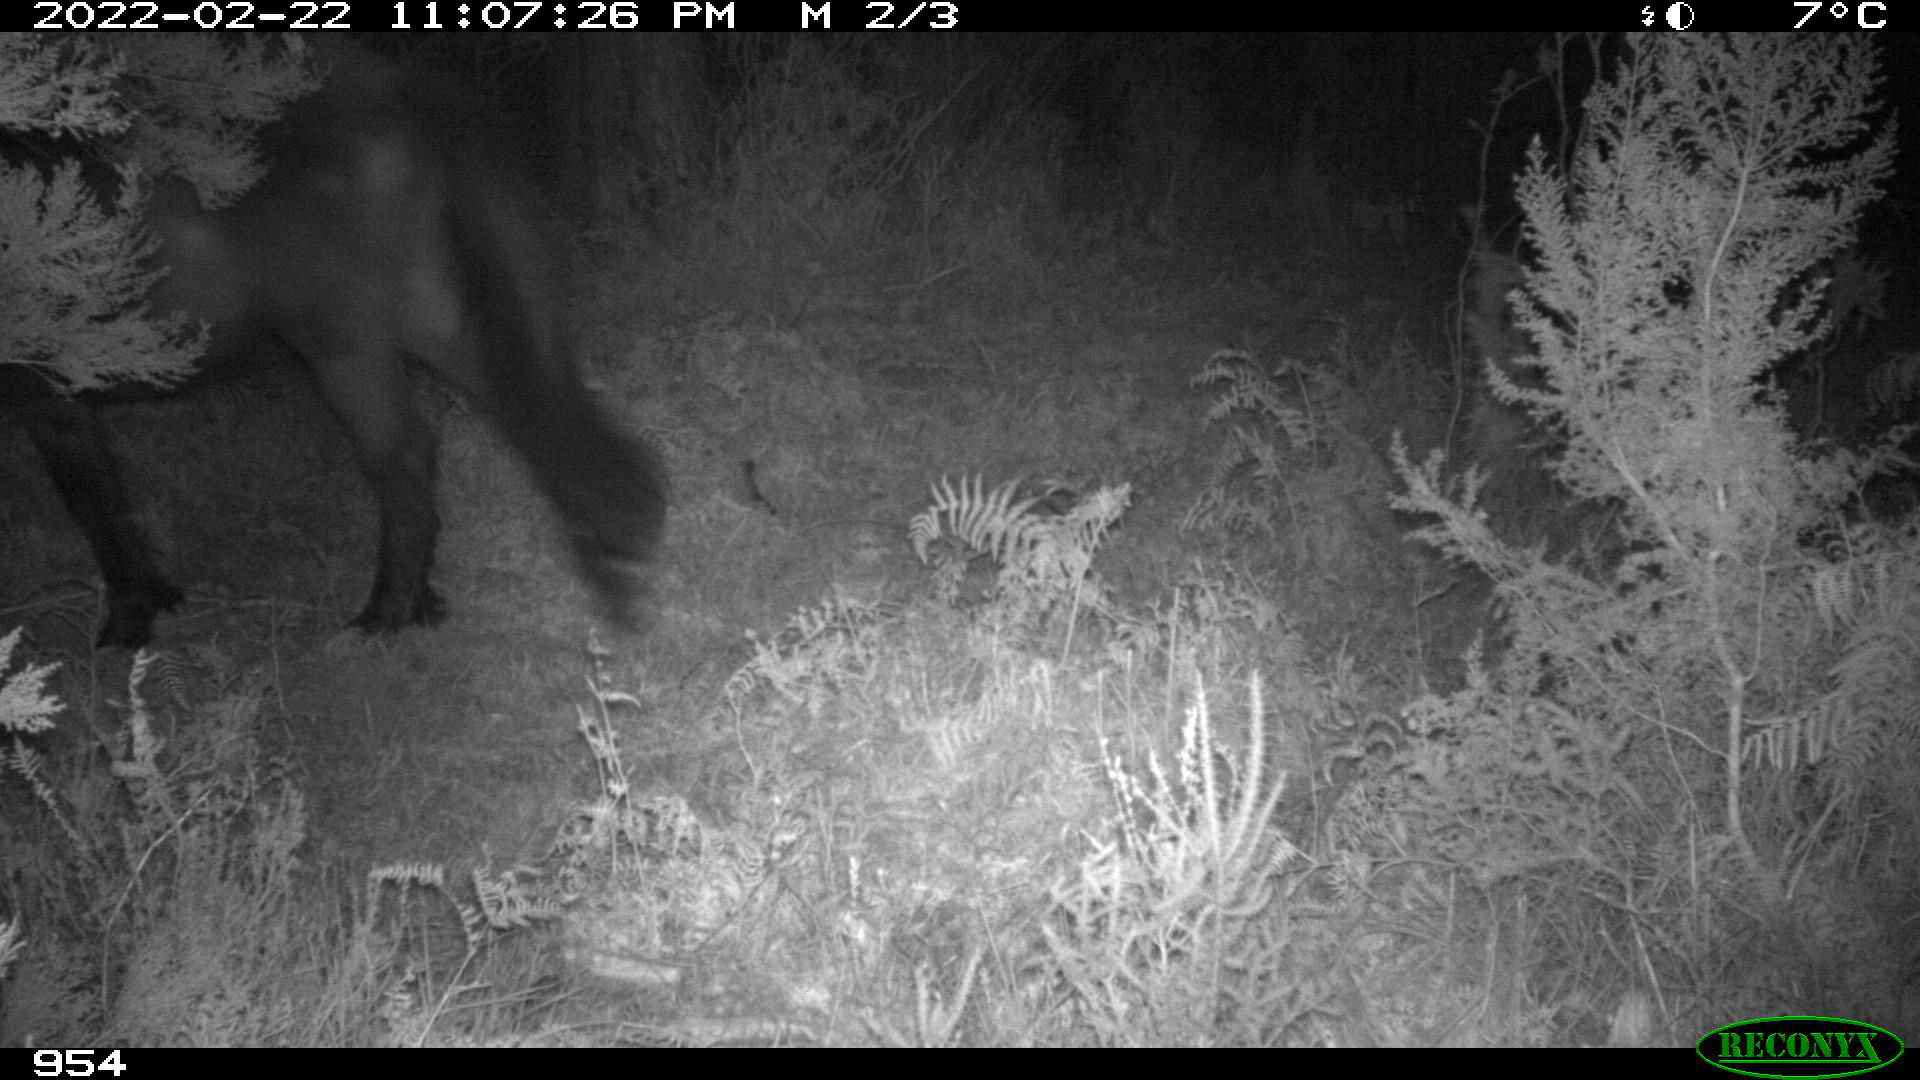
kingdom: Animalia
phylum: Chordata
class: Mammalia
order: Perissodactyla
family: Equidae
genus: Equus
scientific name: Equus caballus
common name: Horse
